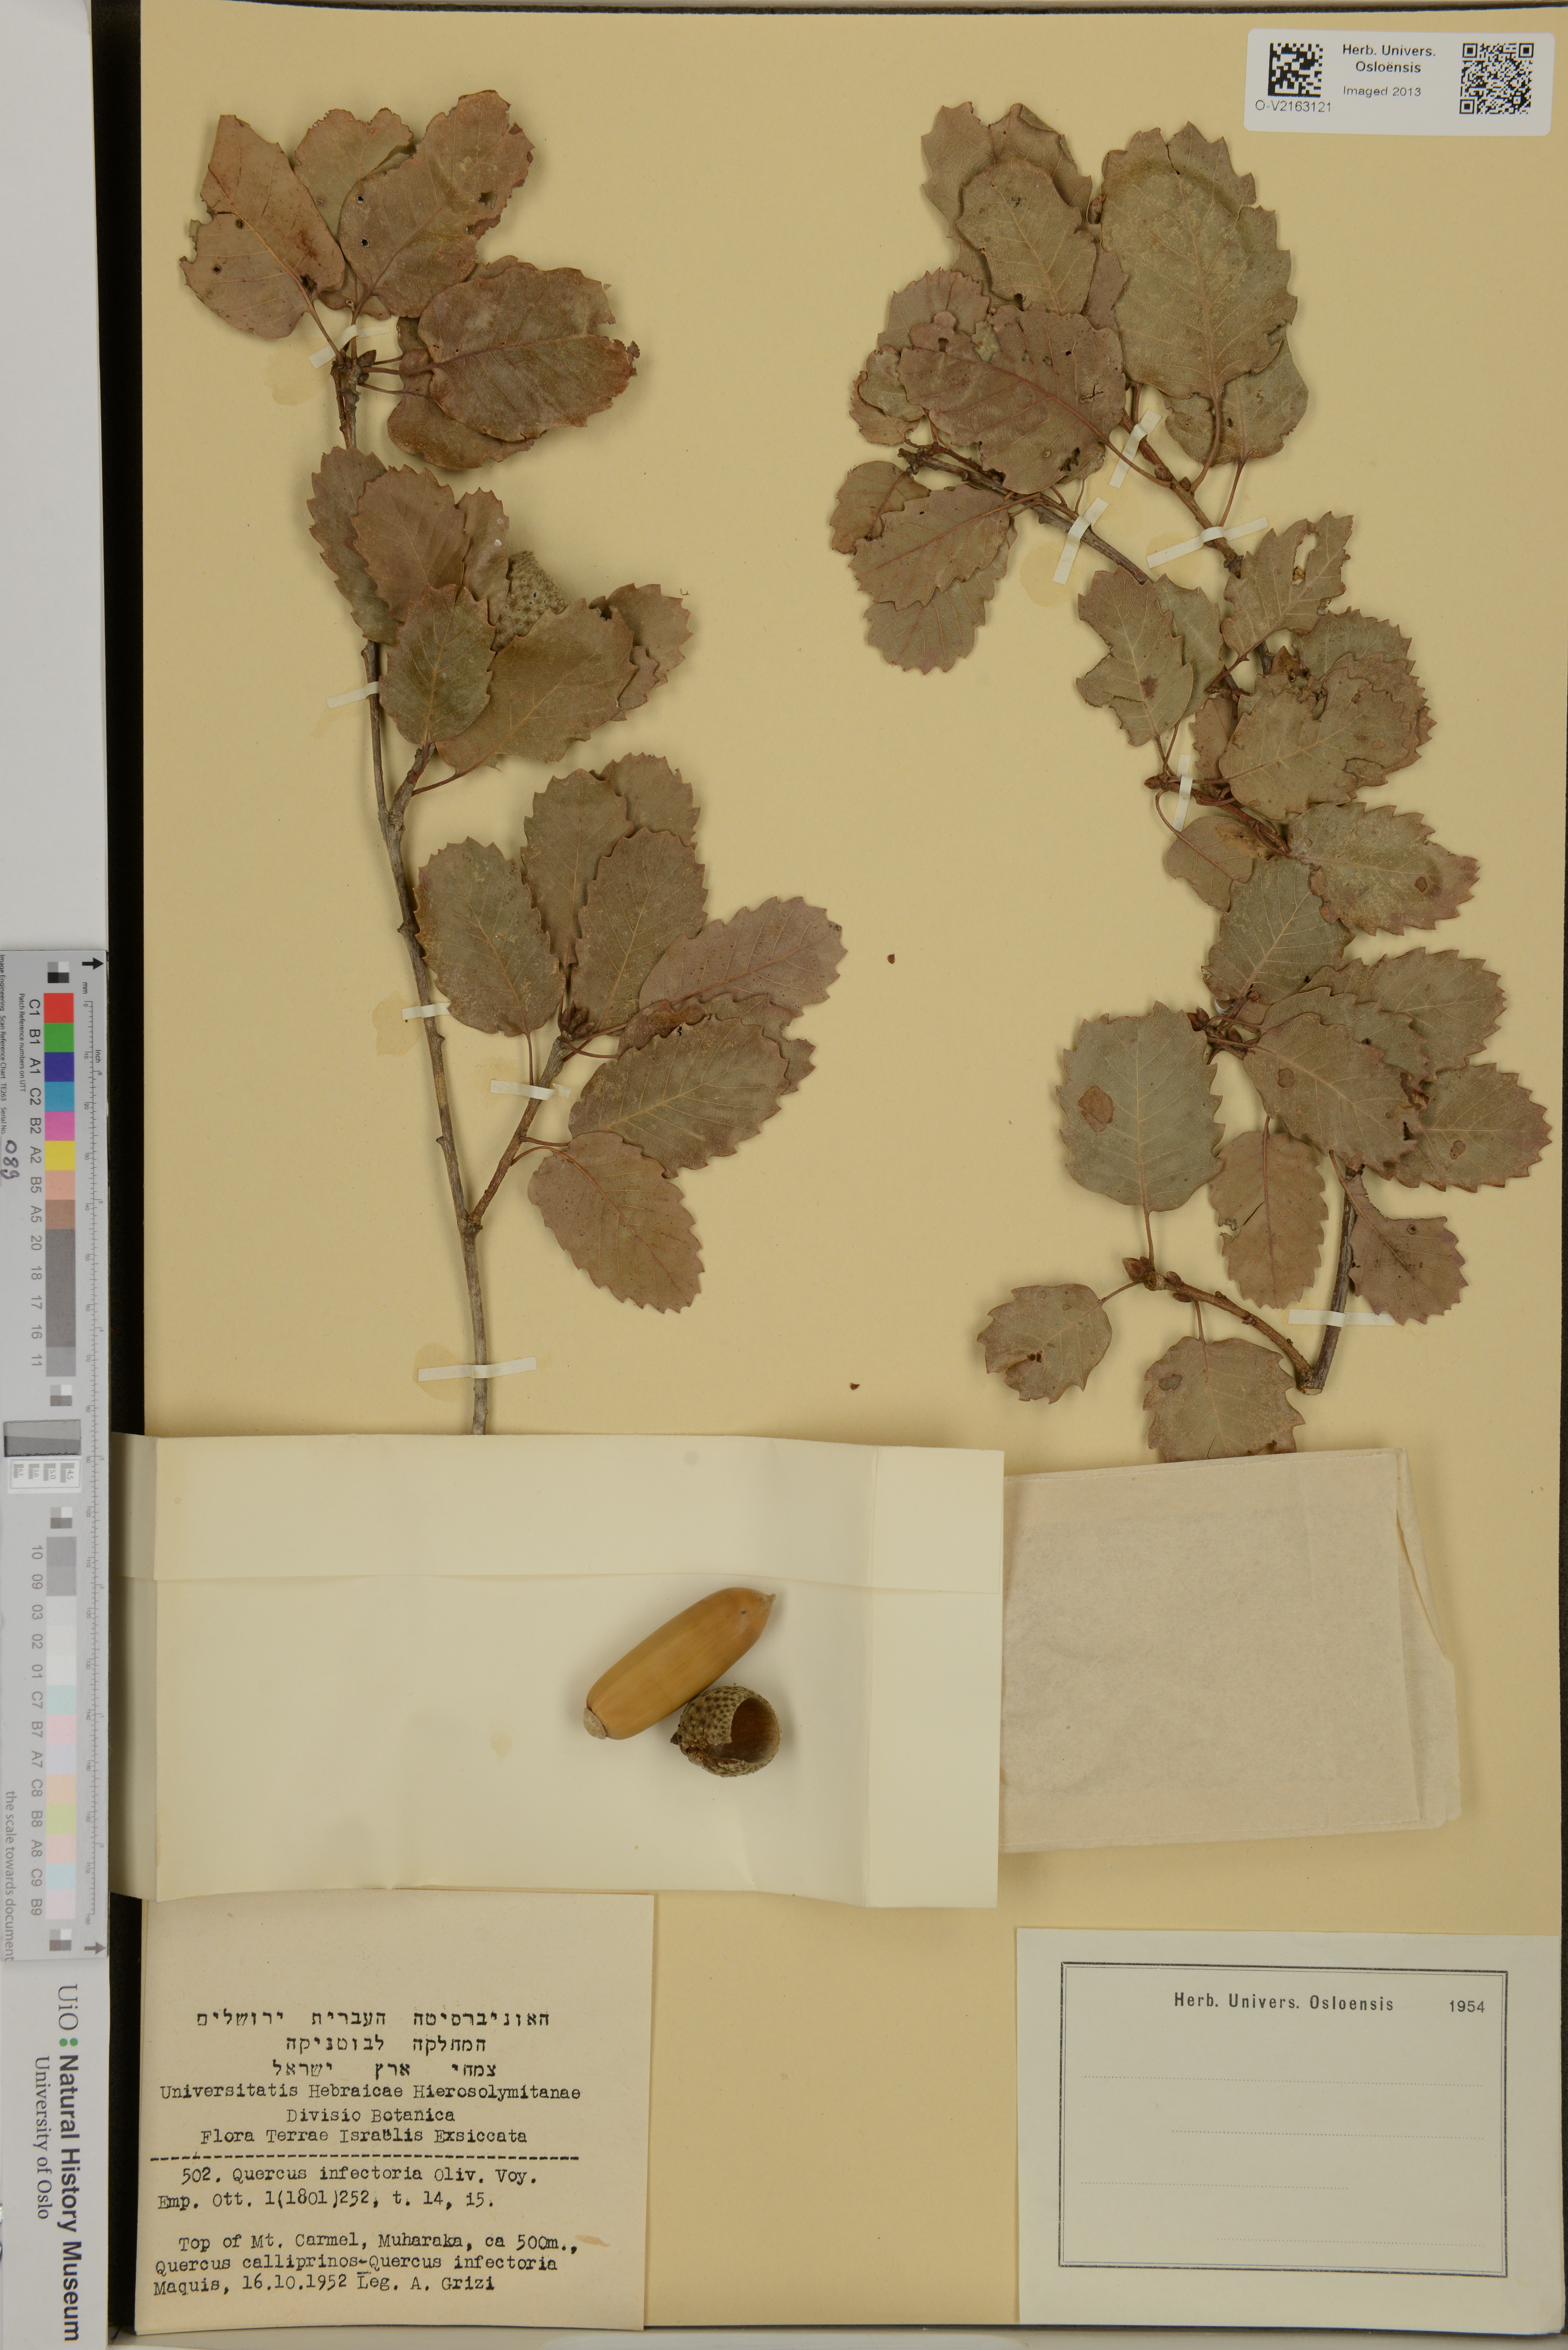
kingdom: Plantae
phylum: Tracheophyta
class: Magnoliopsida
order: Fagales
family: Fagaceae
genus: Quercus
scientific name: Quercus infectoria
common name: Aleppo oak
